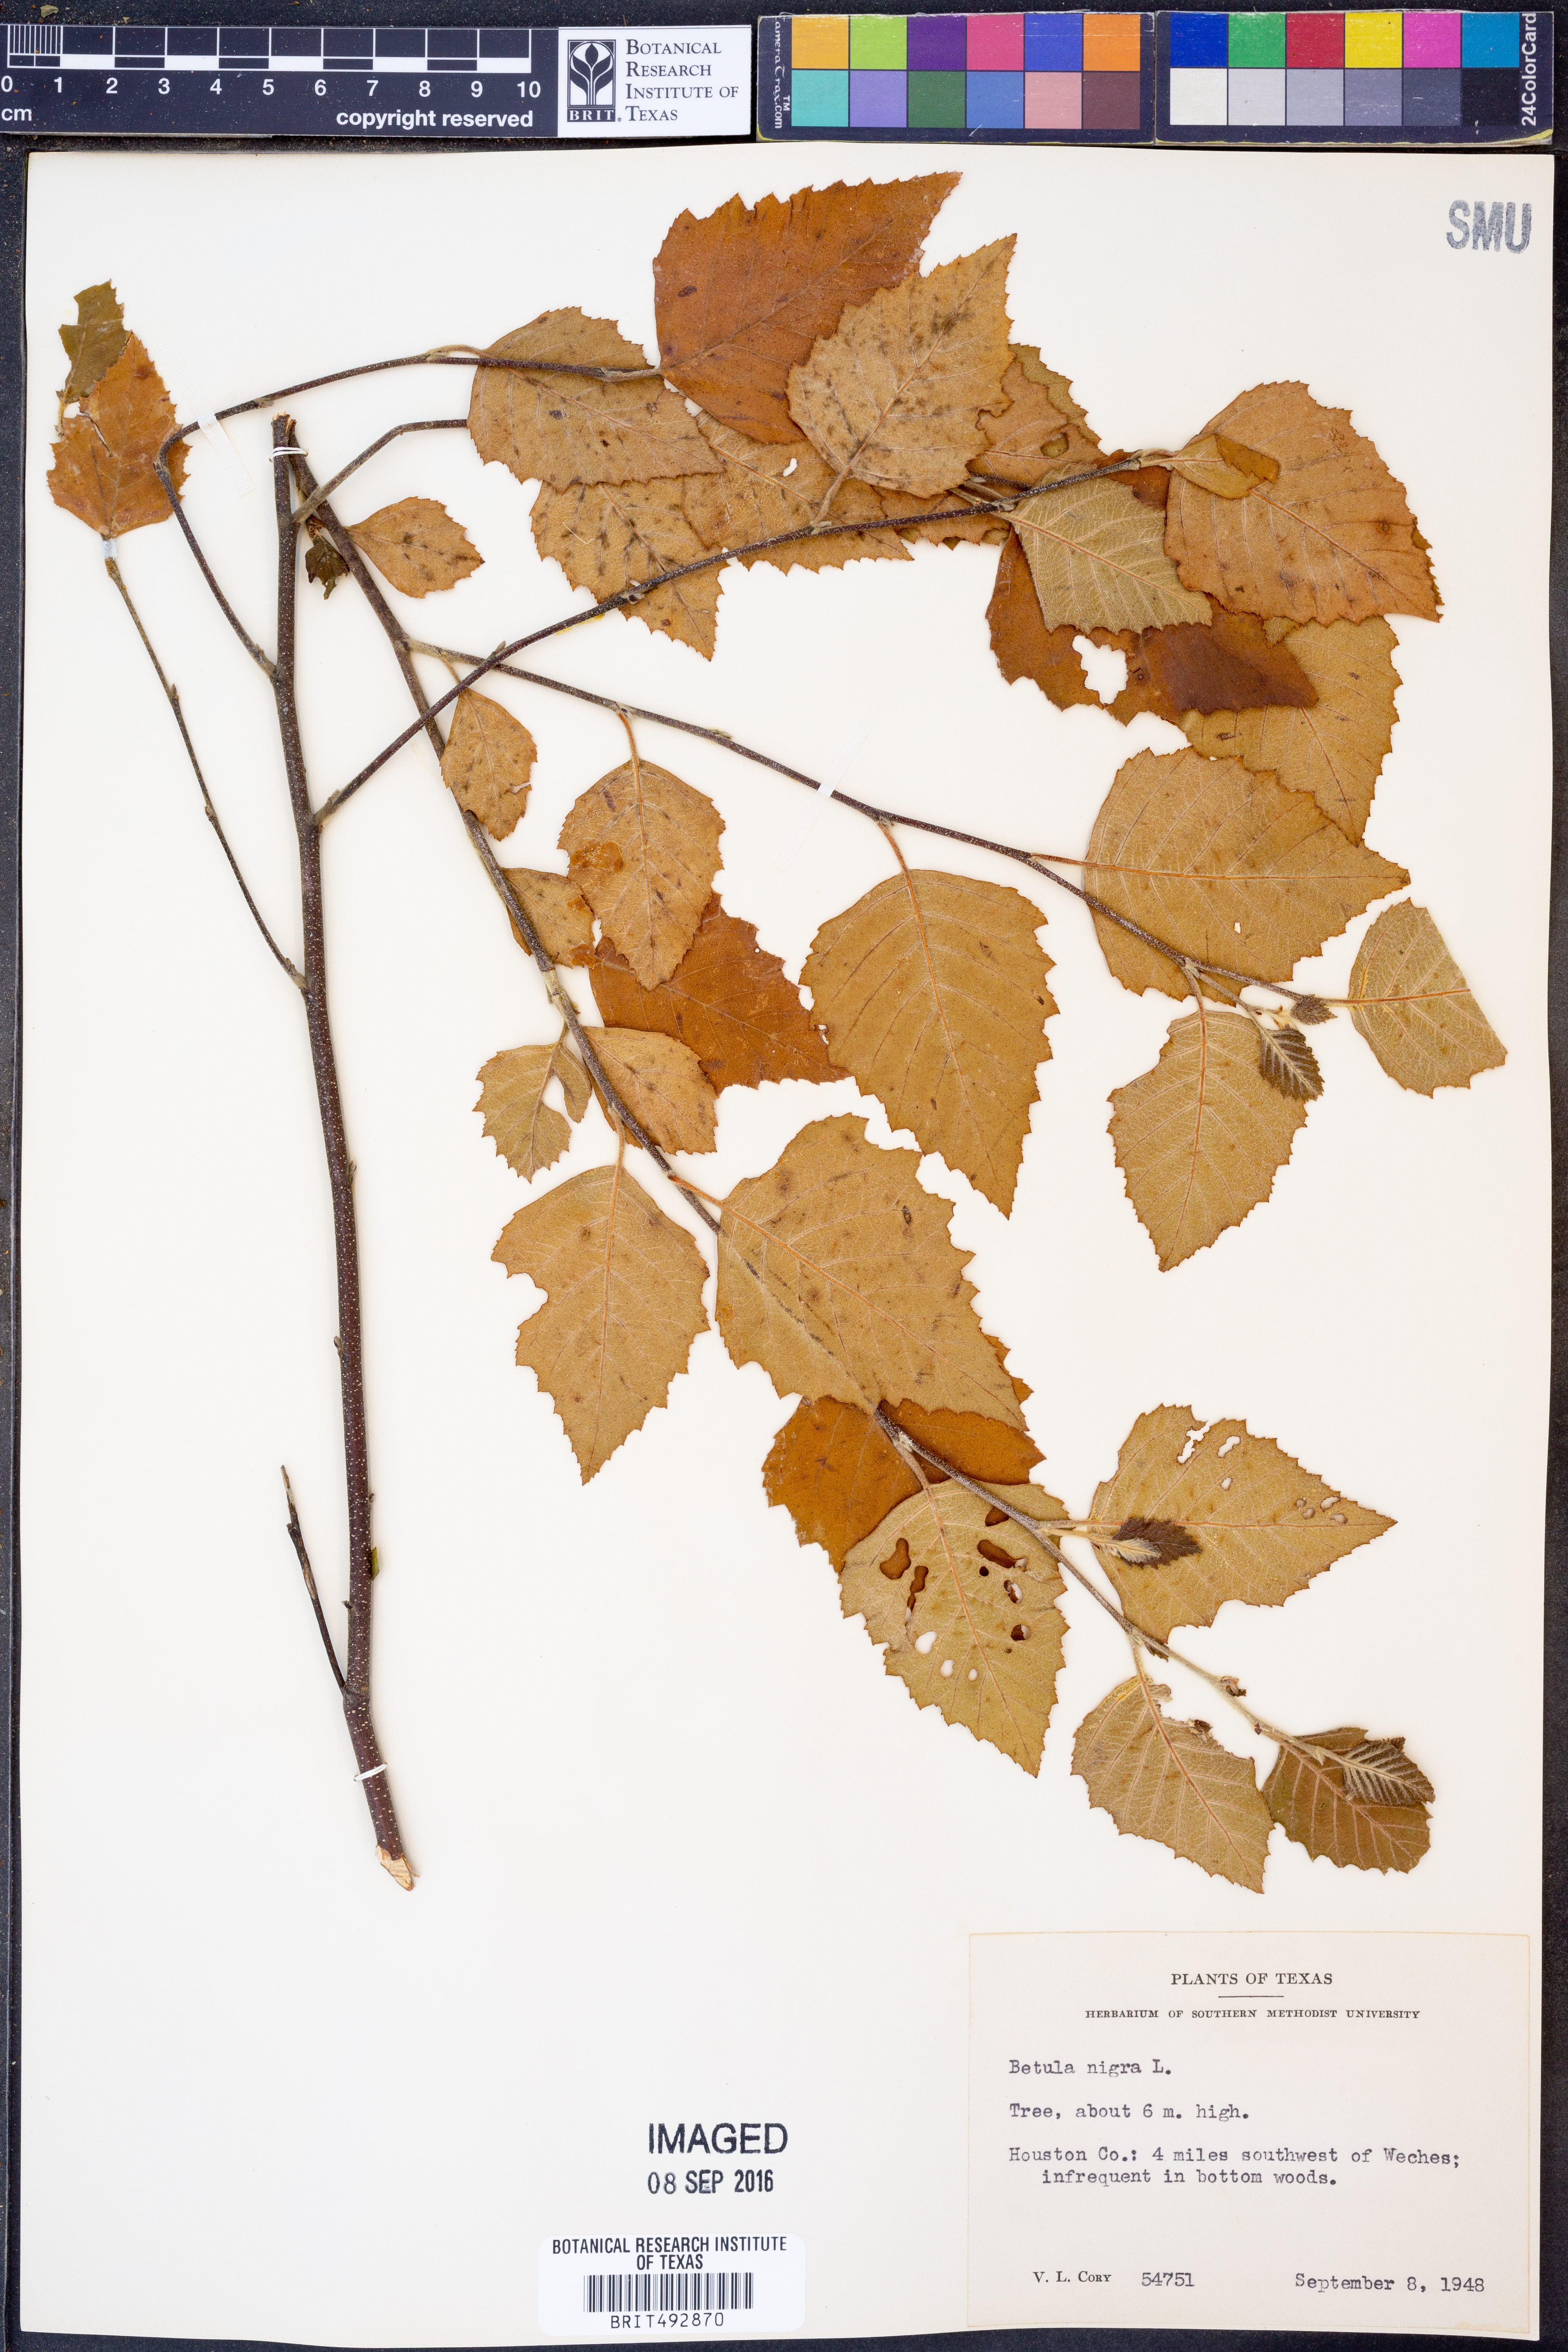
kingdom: Plantae
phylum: Tracheophyta
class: Magnoliopsida
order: Fagales
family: Betulaceae
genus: Betula
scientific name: Betula nigra
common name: Black birch
